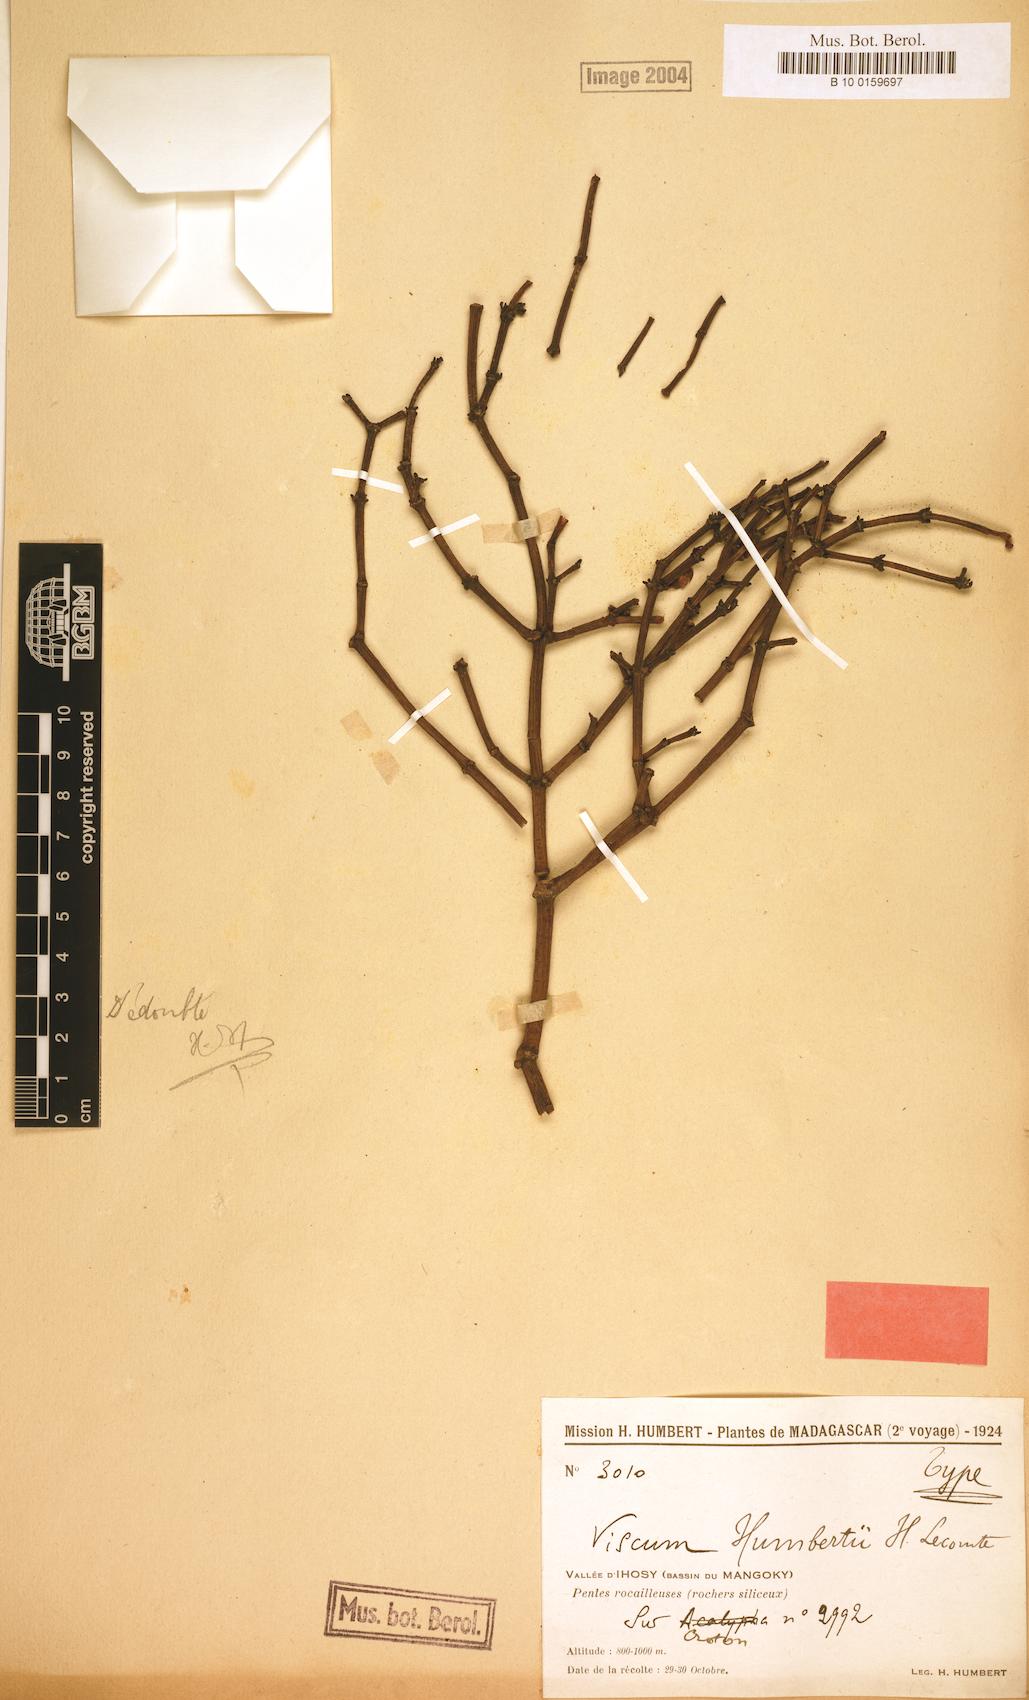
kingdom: Plantae
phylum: Tracheophyta
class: Magnoliopsida
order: Santalales
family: Viscaceae
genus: Viscum
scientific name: Viscum trachycarpum
